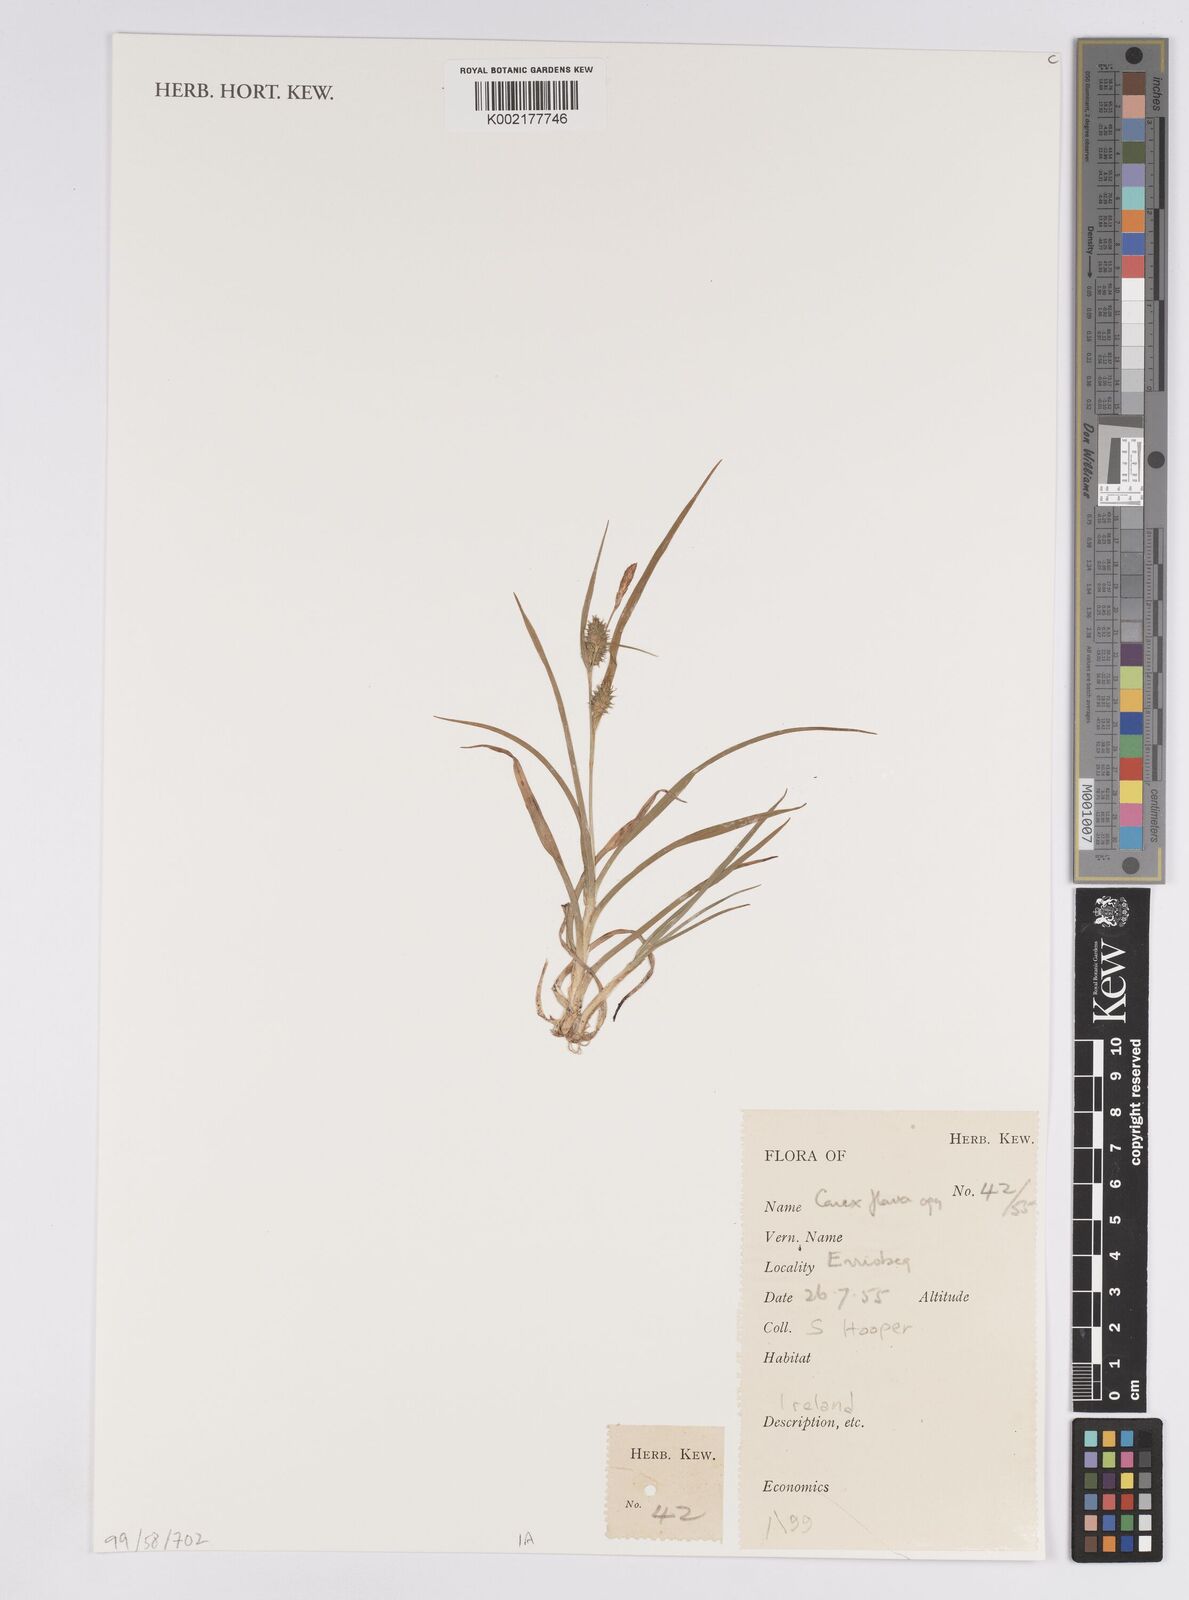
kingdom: Plantae
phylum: Tracheophyta
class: Liliopsida
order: Poales
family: Cyperaceae
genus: Carex
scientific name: Carex flava
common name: Large yellow-sedge
